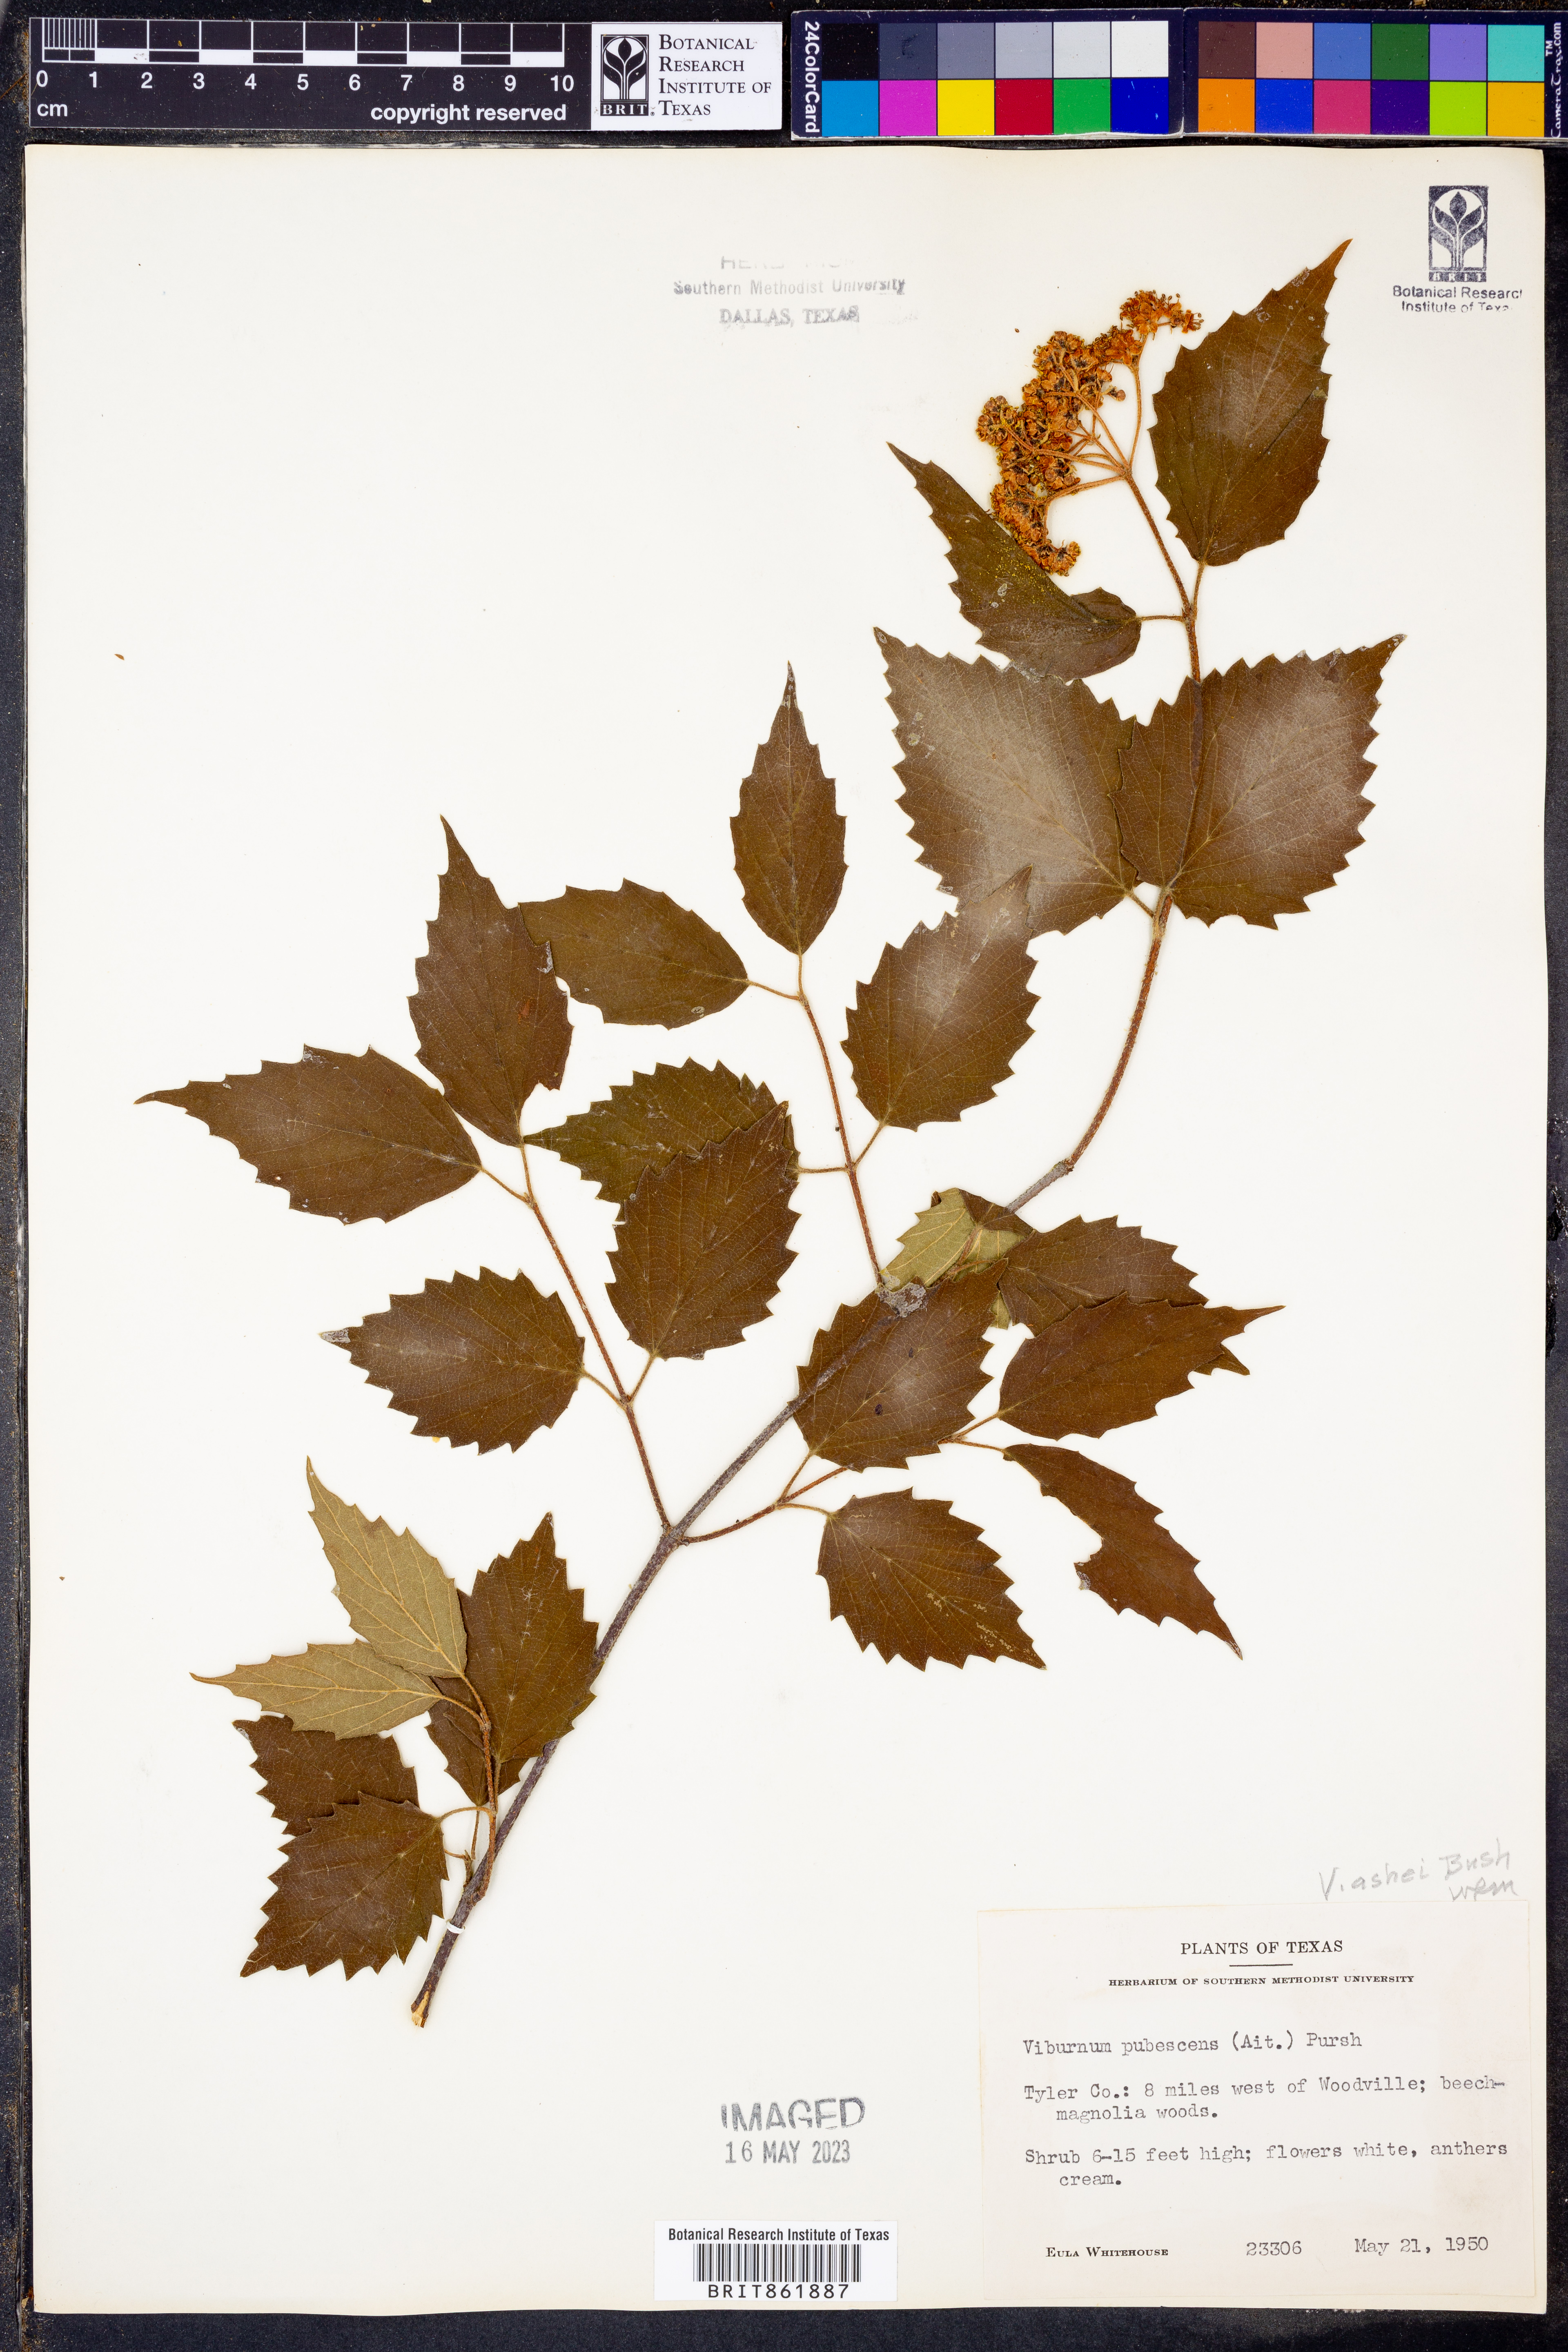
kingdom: Plantae
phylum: Tracheophyta
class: Magnoliopsida
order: Dipsacales
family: Viburnaceae
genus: Viburnum
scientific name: Viburnum recognitum
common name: Northern arrow-wood
